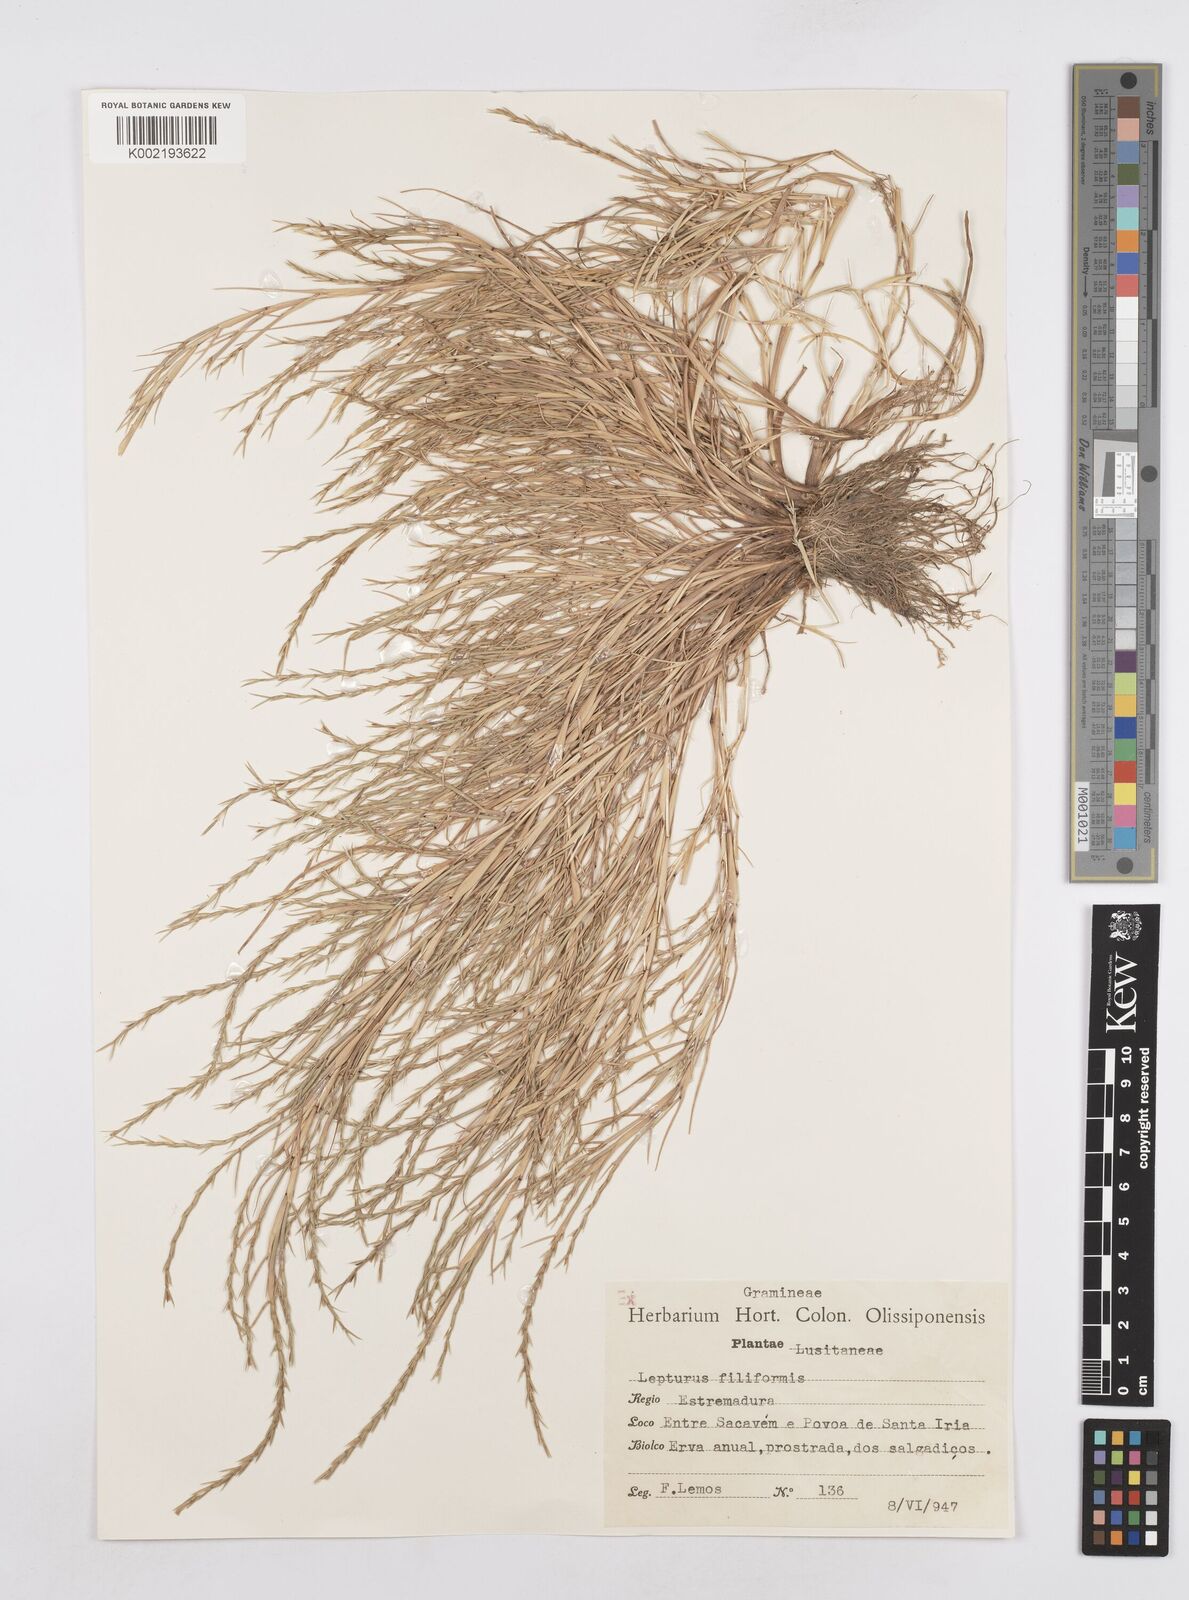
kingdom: Plantae
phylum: Tracheophyta
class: Liliopsida
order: Poales
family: Poaceae
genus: Parapholis
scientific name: Parapholis filiformis
